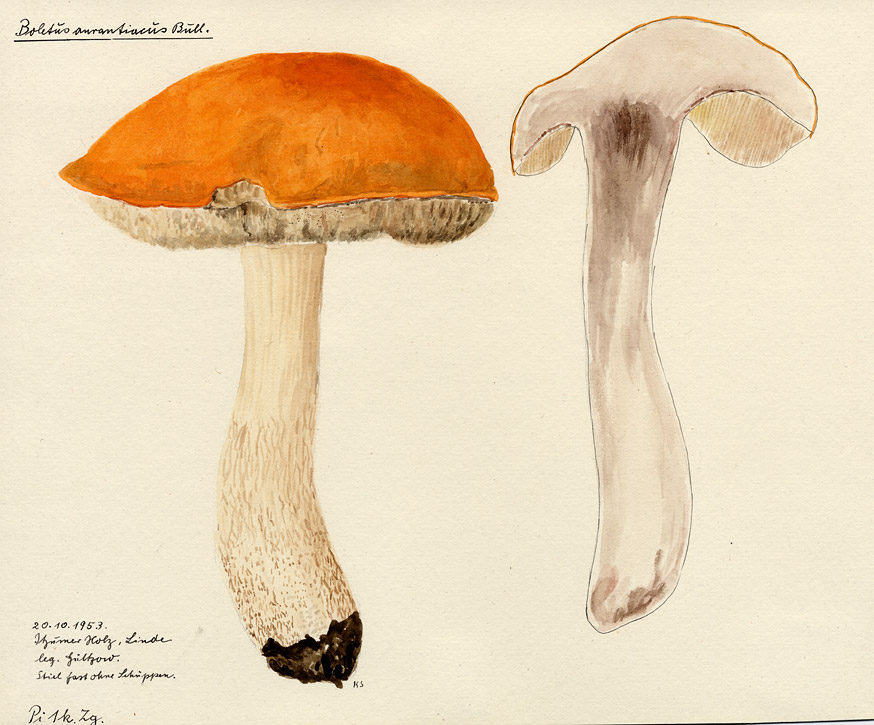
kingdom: Fungi
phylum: Basidiomycota
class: Agaricomycetes
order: Boletales
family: Boletaceae
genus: Leccinum
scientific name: Leccinum aurantiacum
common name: Orange bolete
